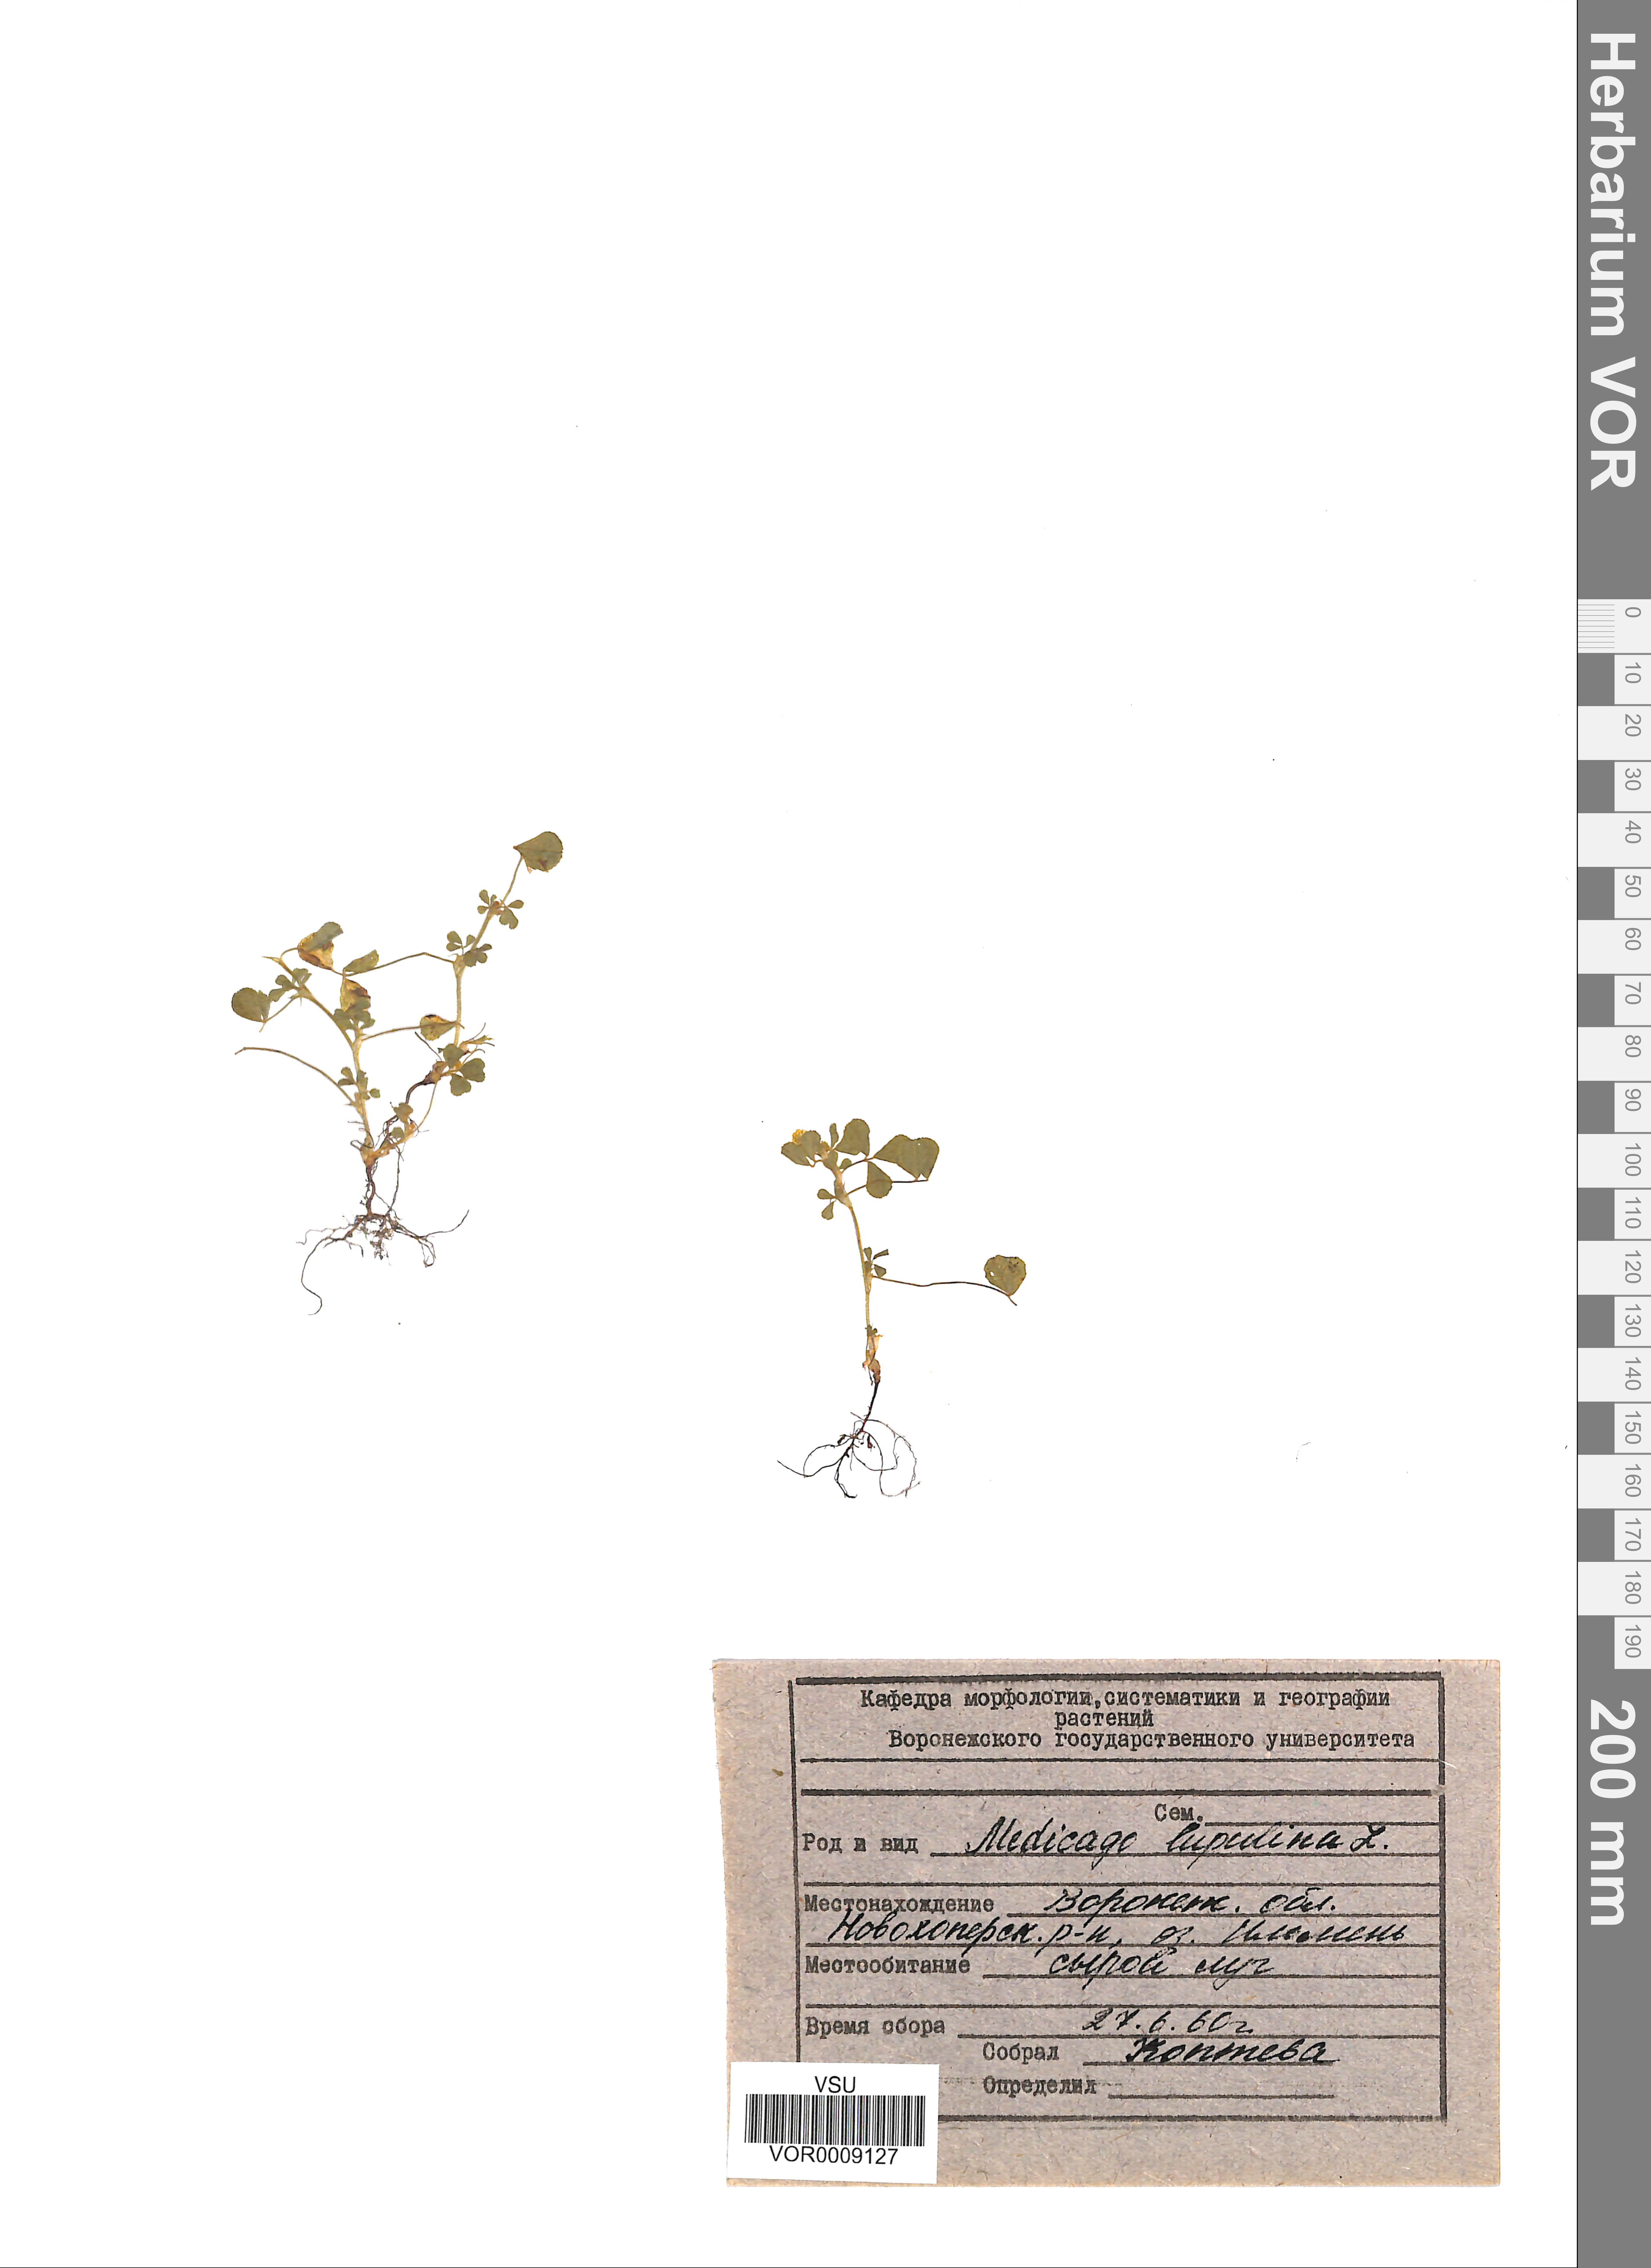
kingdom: Plantae
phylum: Tracheophyta
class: Magnoliopsida
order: Fabales
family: Fabaceae
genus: Medicago
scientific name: Medicago lupulina
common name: Black medick
